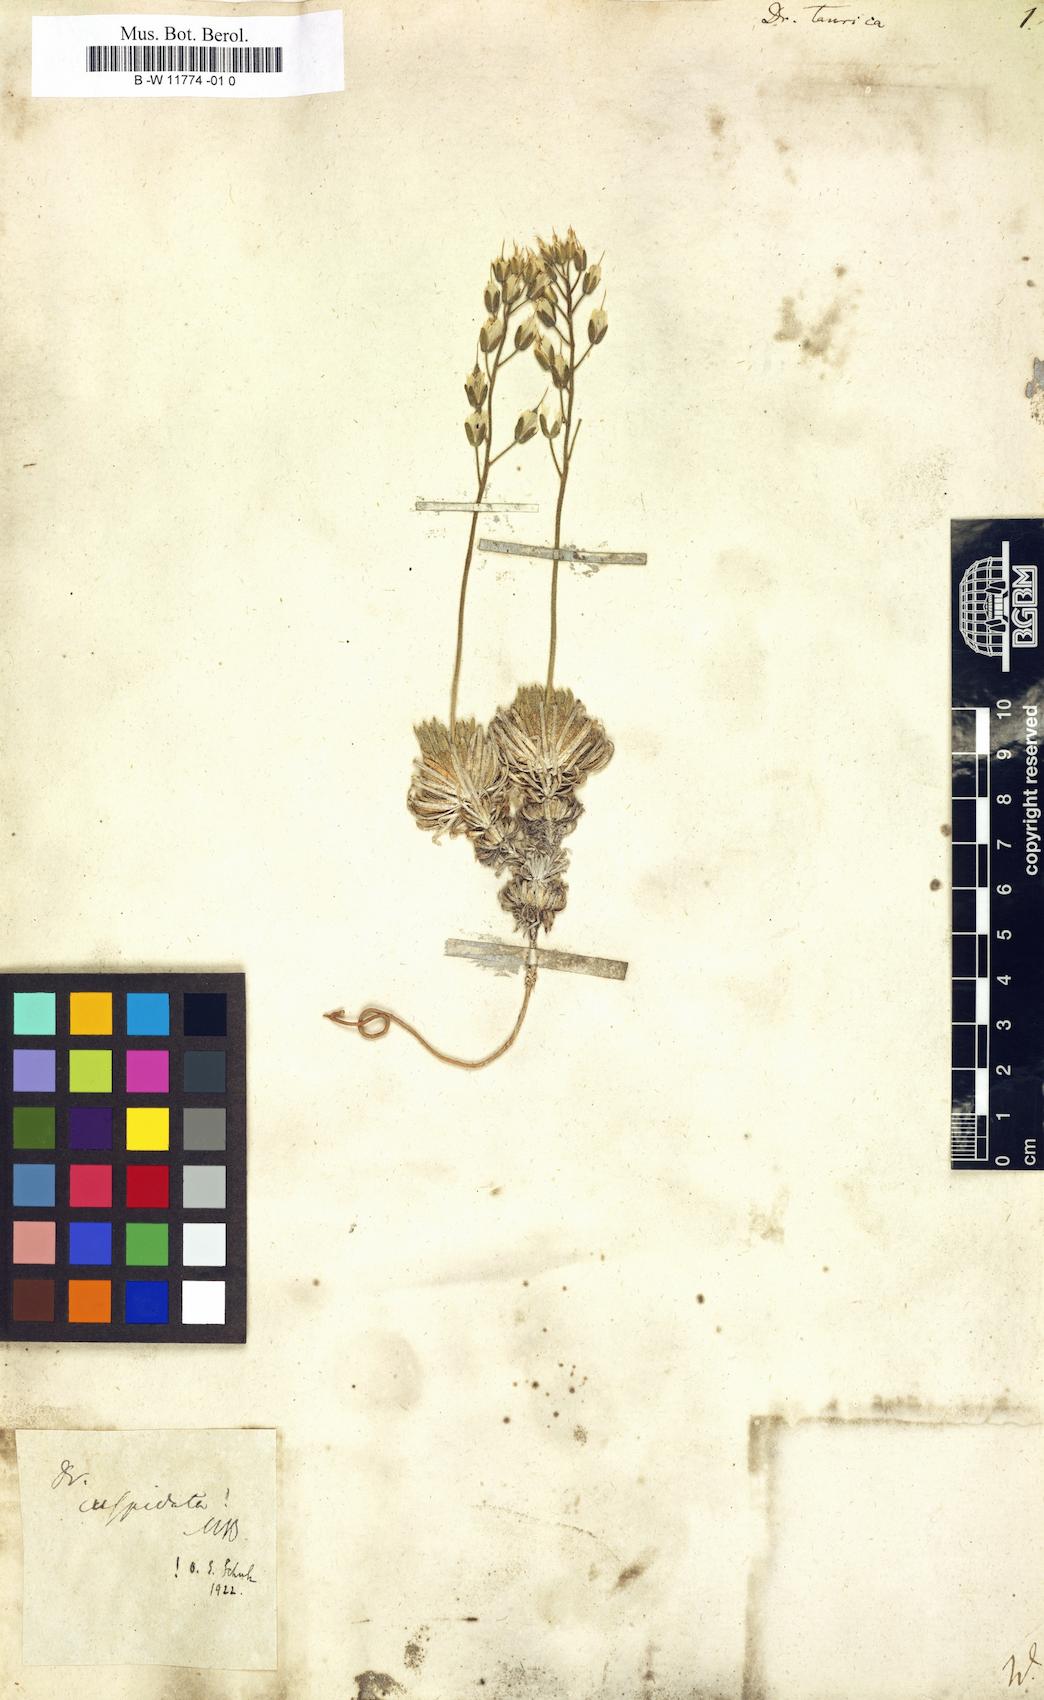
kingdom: Plantae
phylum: Tracheophyta
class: Magnoliopsida
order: Brassicales
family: Brassicaceae
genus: Draba
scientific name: Draba cuspidata
